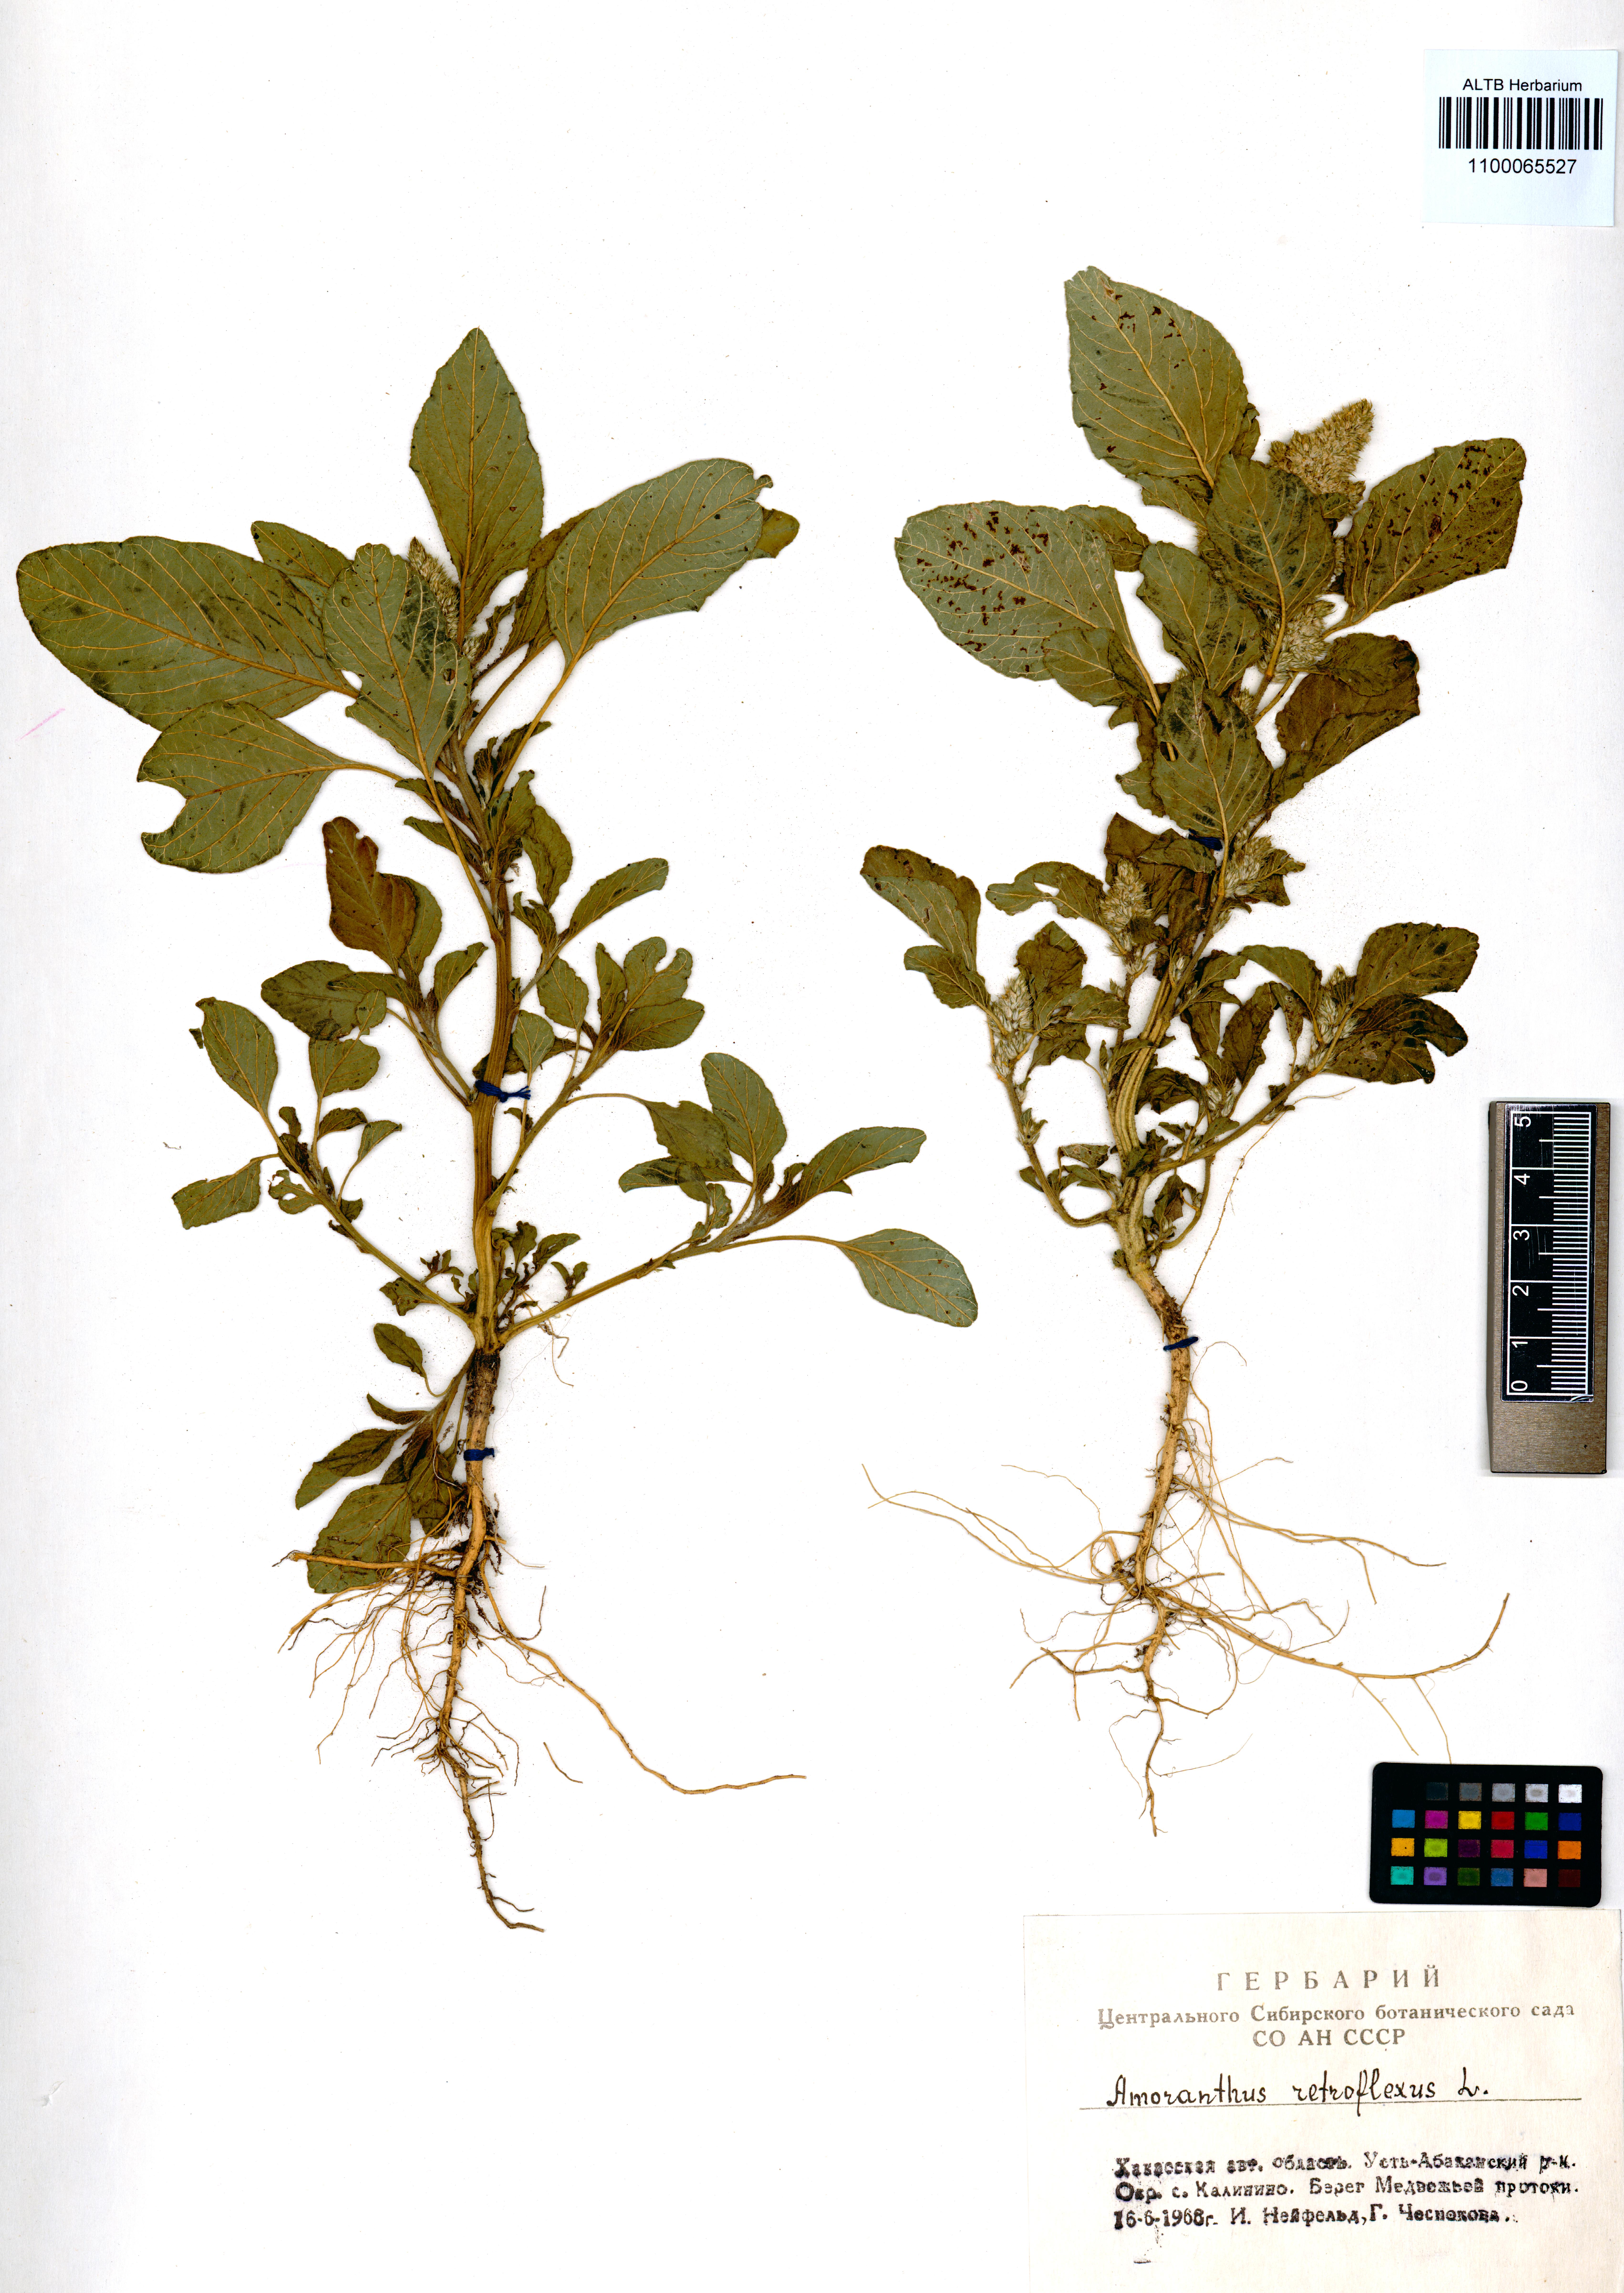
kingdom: Plantae
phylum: Tracheophyta
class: Magnoliopsida
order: Caryophyllales
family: Amaranthaceae
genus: Amaranthus
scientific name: Amaranthus retroflexus
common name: Redroot amaranth
